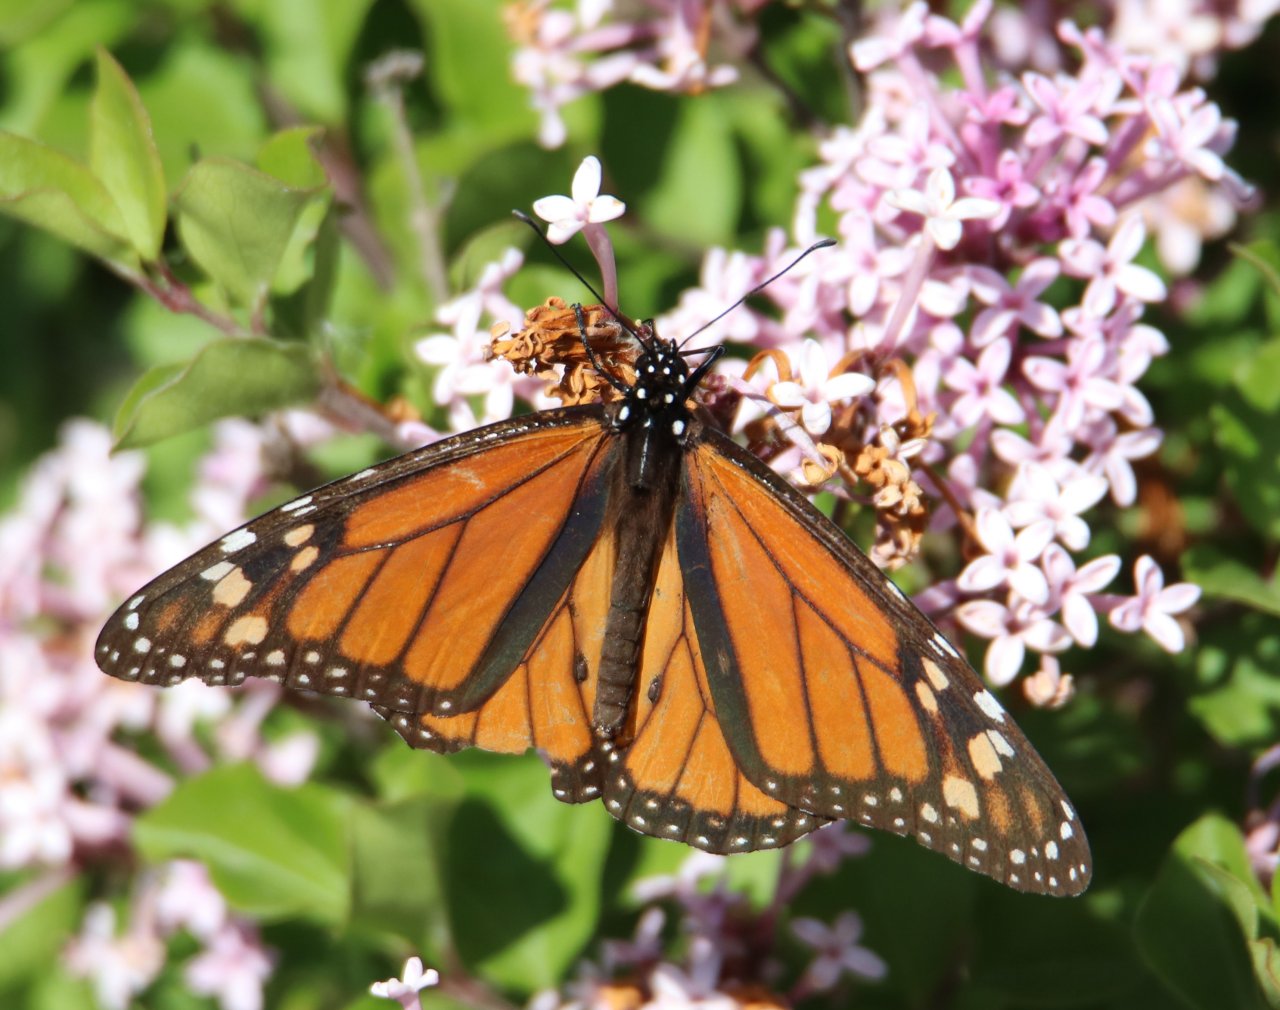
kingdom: Animalia
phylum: Arthropoda
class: Insecta
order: Lepidoptera
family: Nymphalidae
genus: Danaus
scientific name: Danaus plexippus
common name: Monarch
